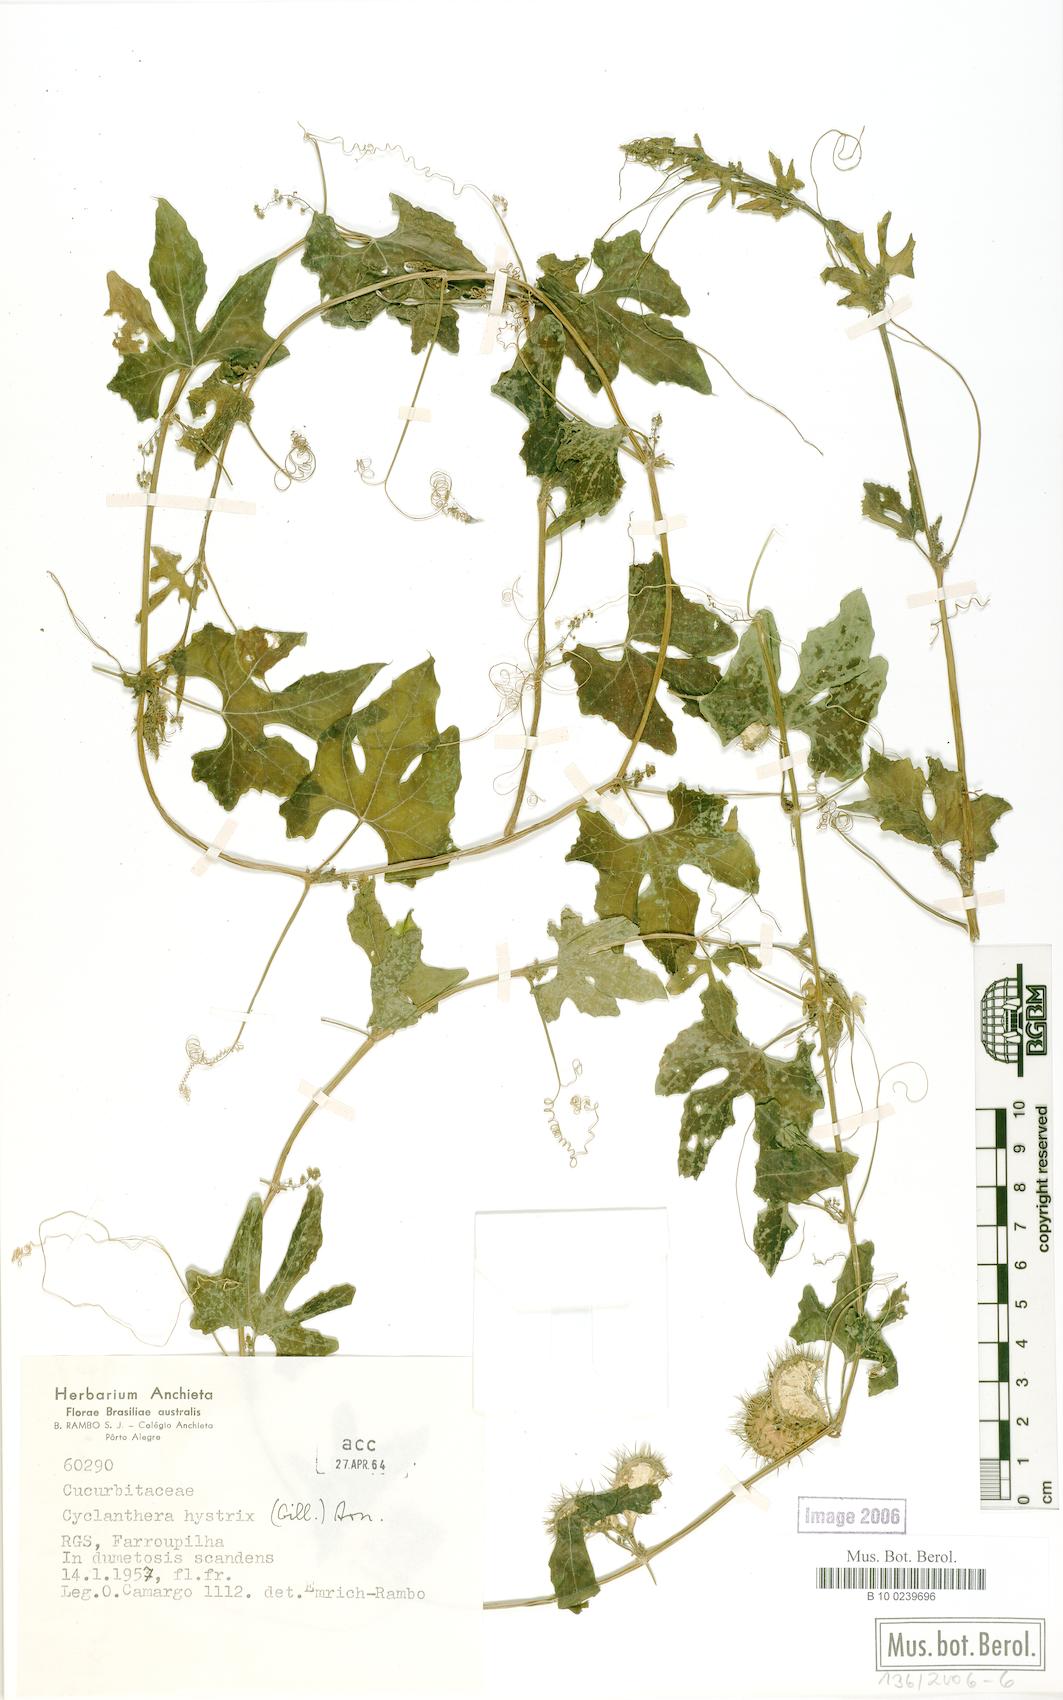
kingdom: Plantae
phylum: Tracheophyta
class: Magnoliopsida
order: Cucurbitales
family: Cucurbitaceae
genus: Cyclanthera
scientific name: Cyclanthera hystrix
